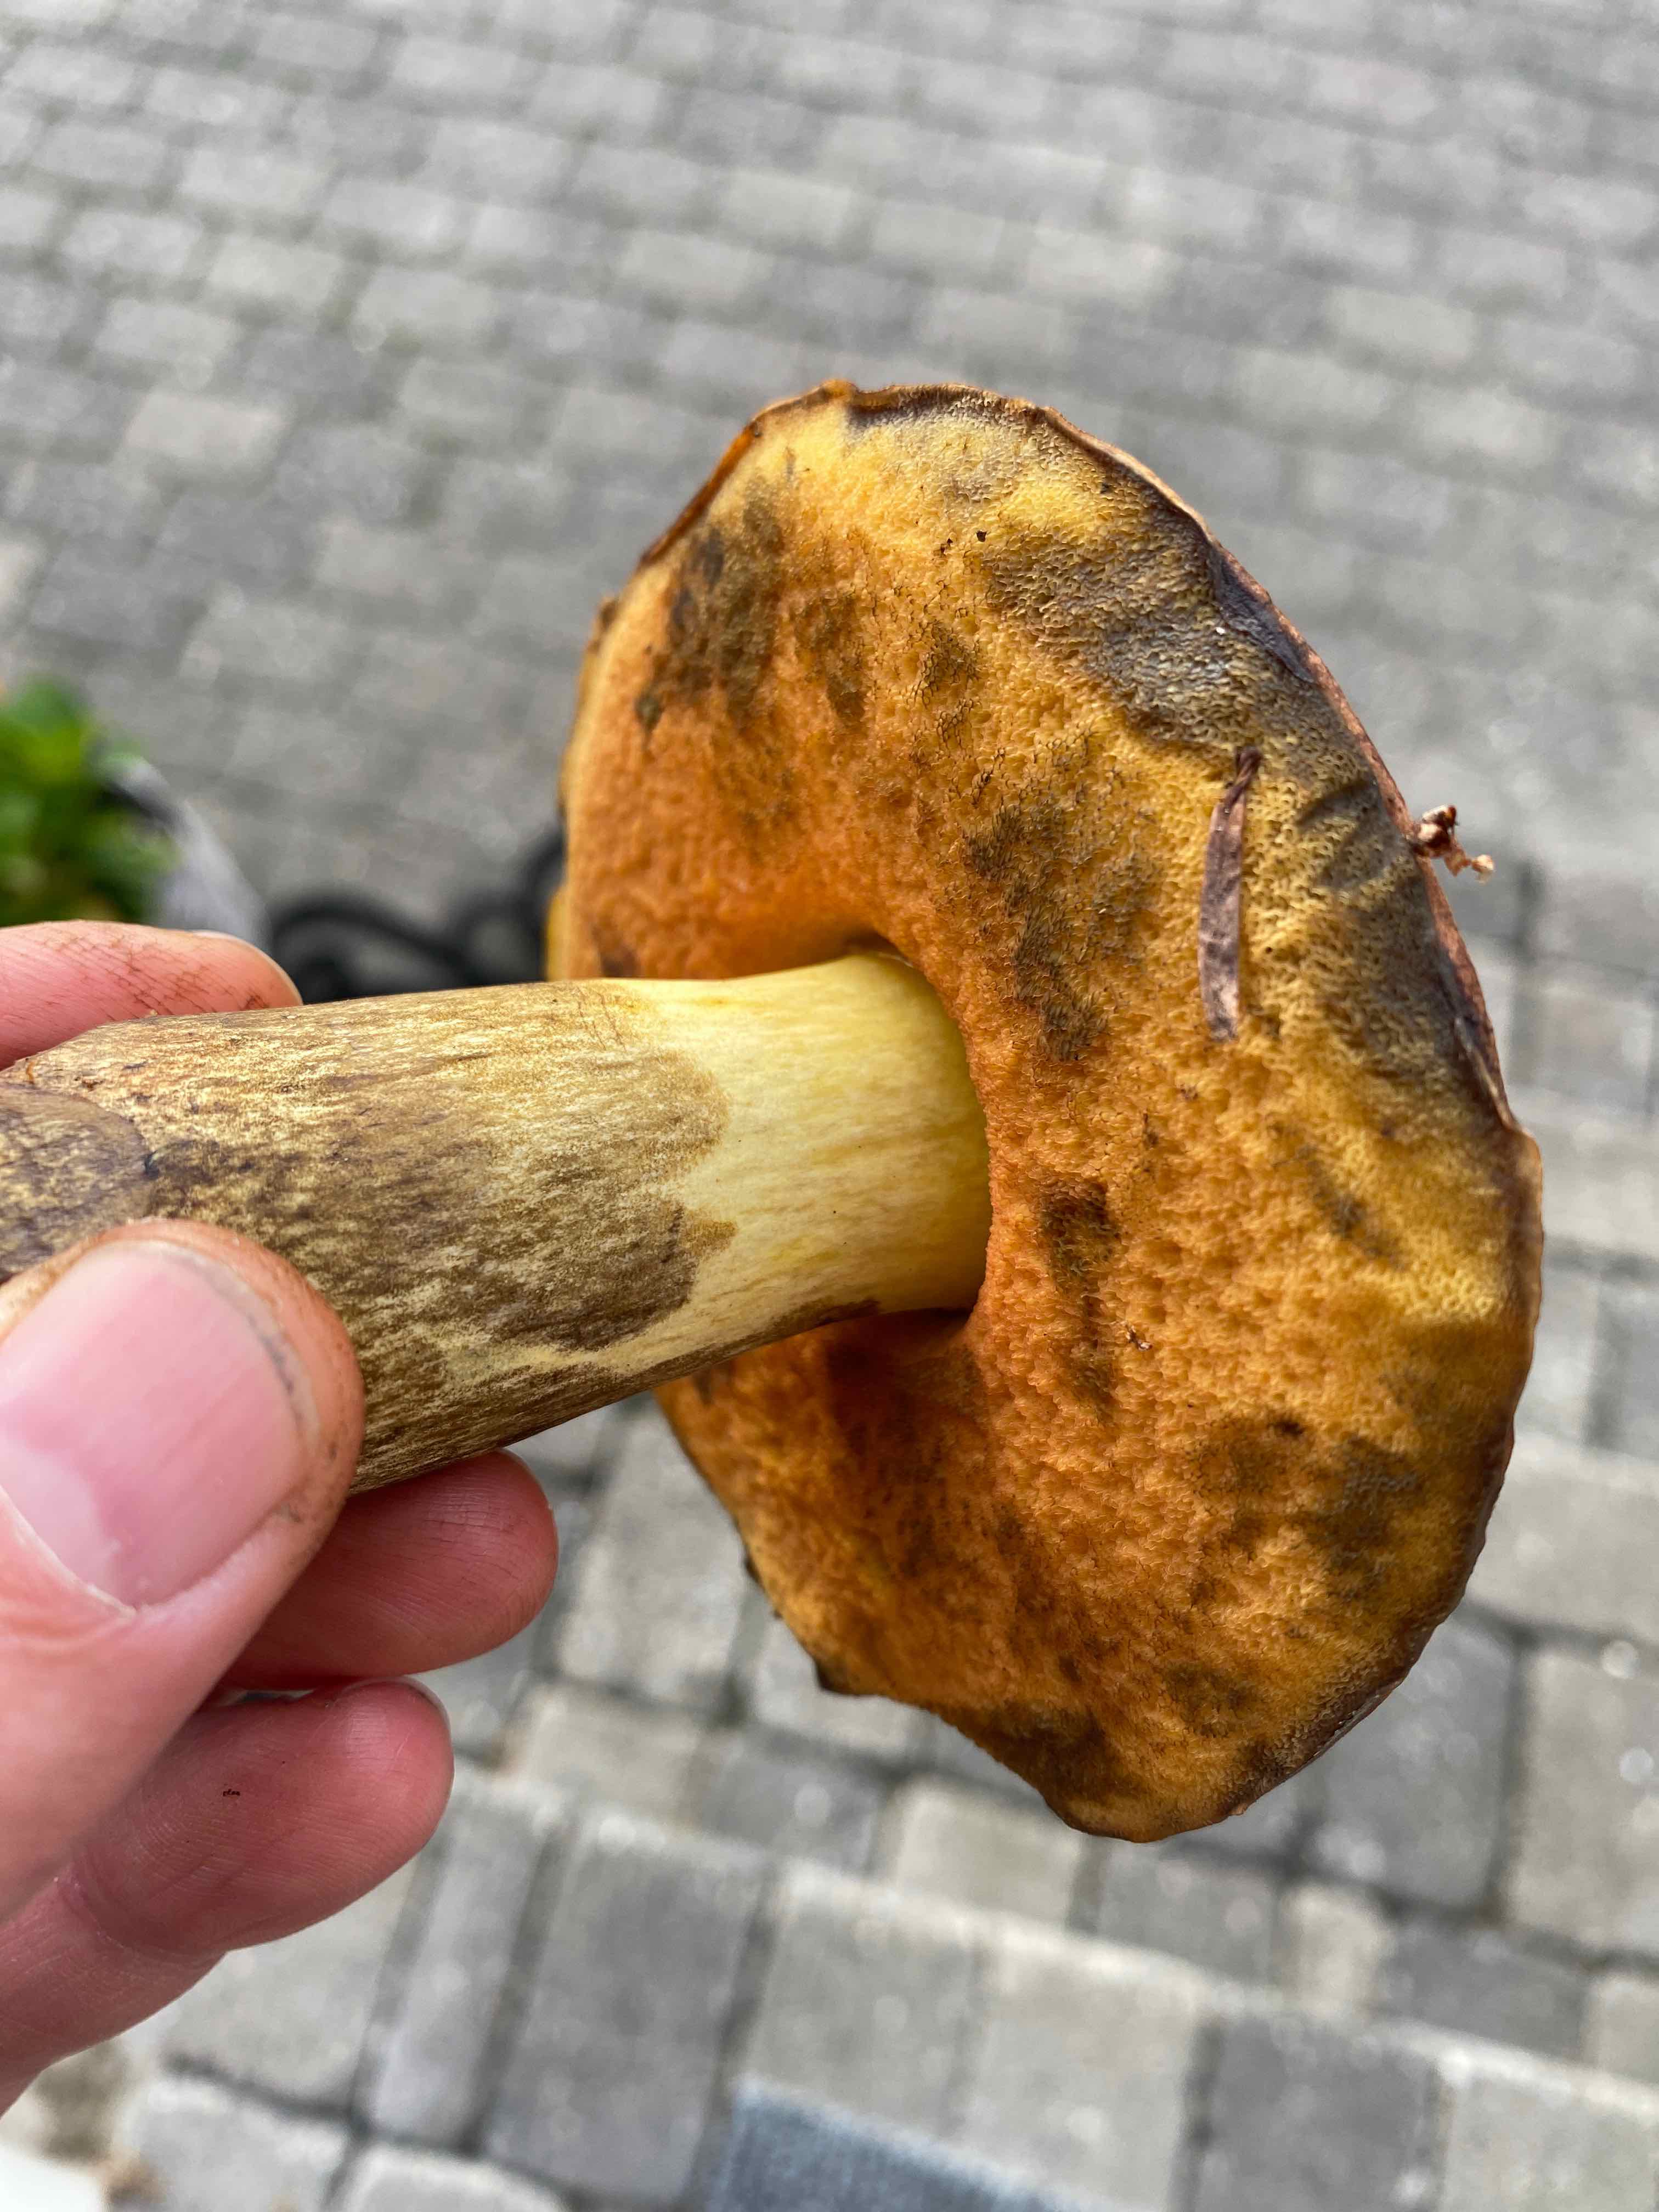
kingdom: Fungi
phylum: Basidiomycota
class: Agaricomycetes
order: Boletales
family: Boletaceae
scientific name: Boletaceae
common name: rørhatfamilien
